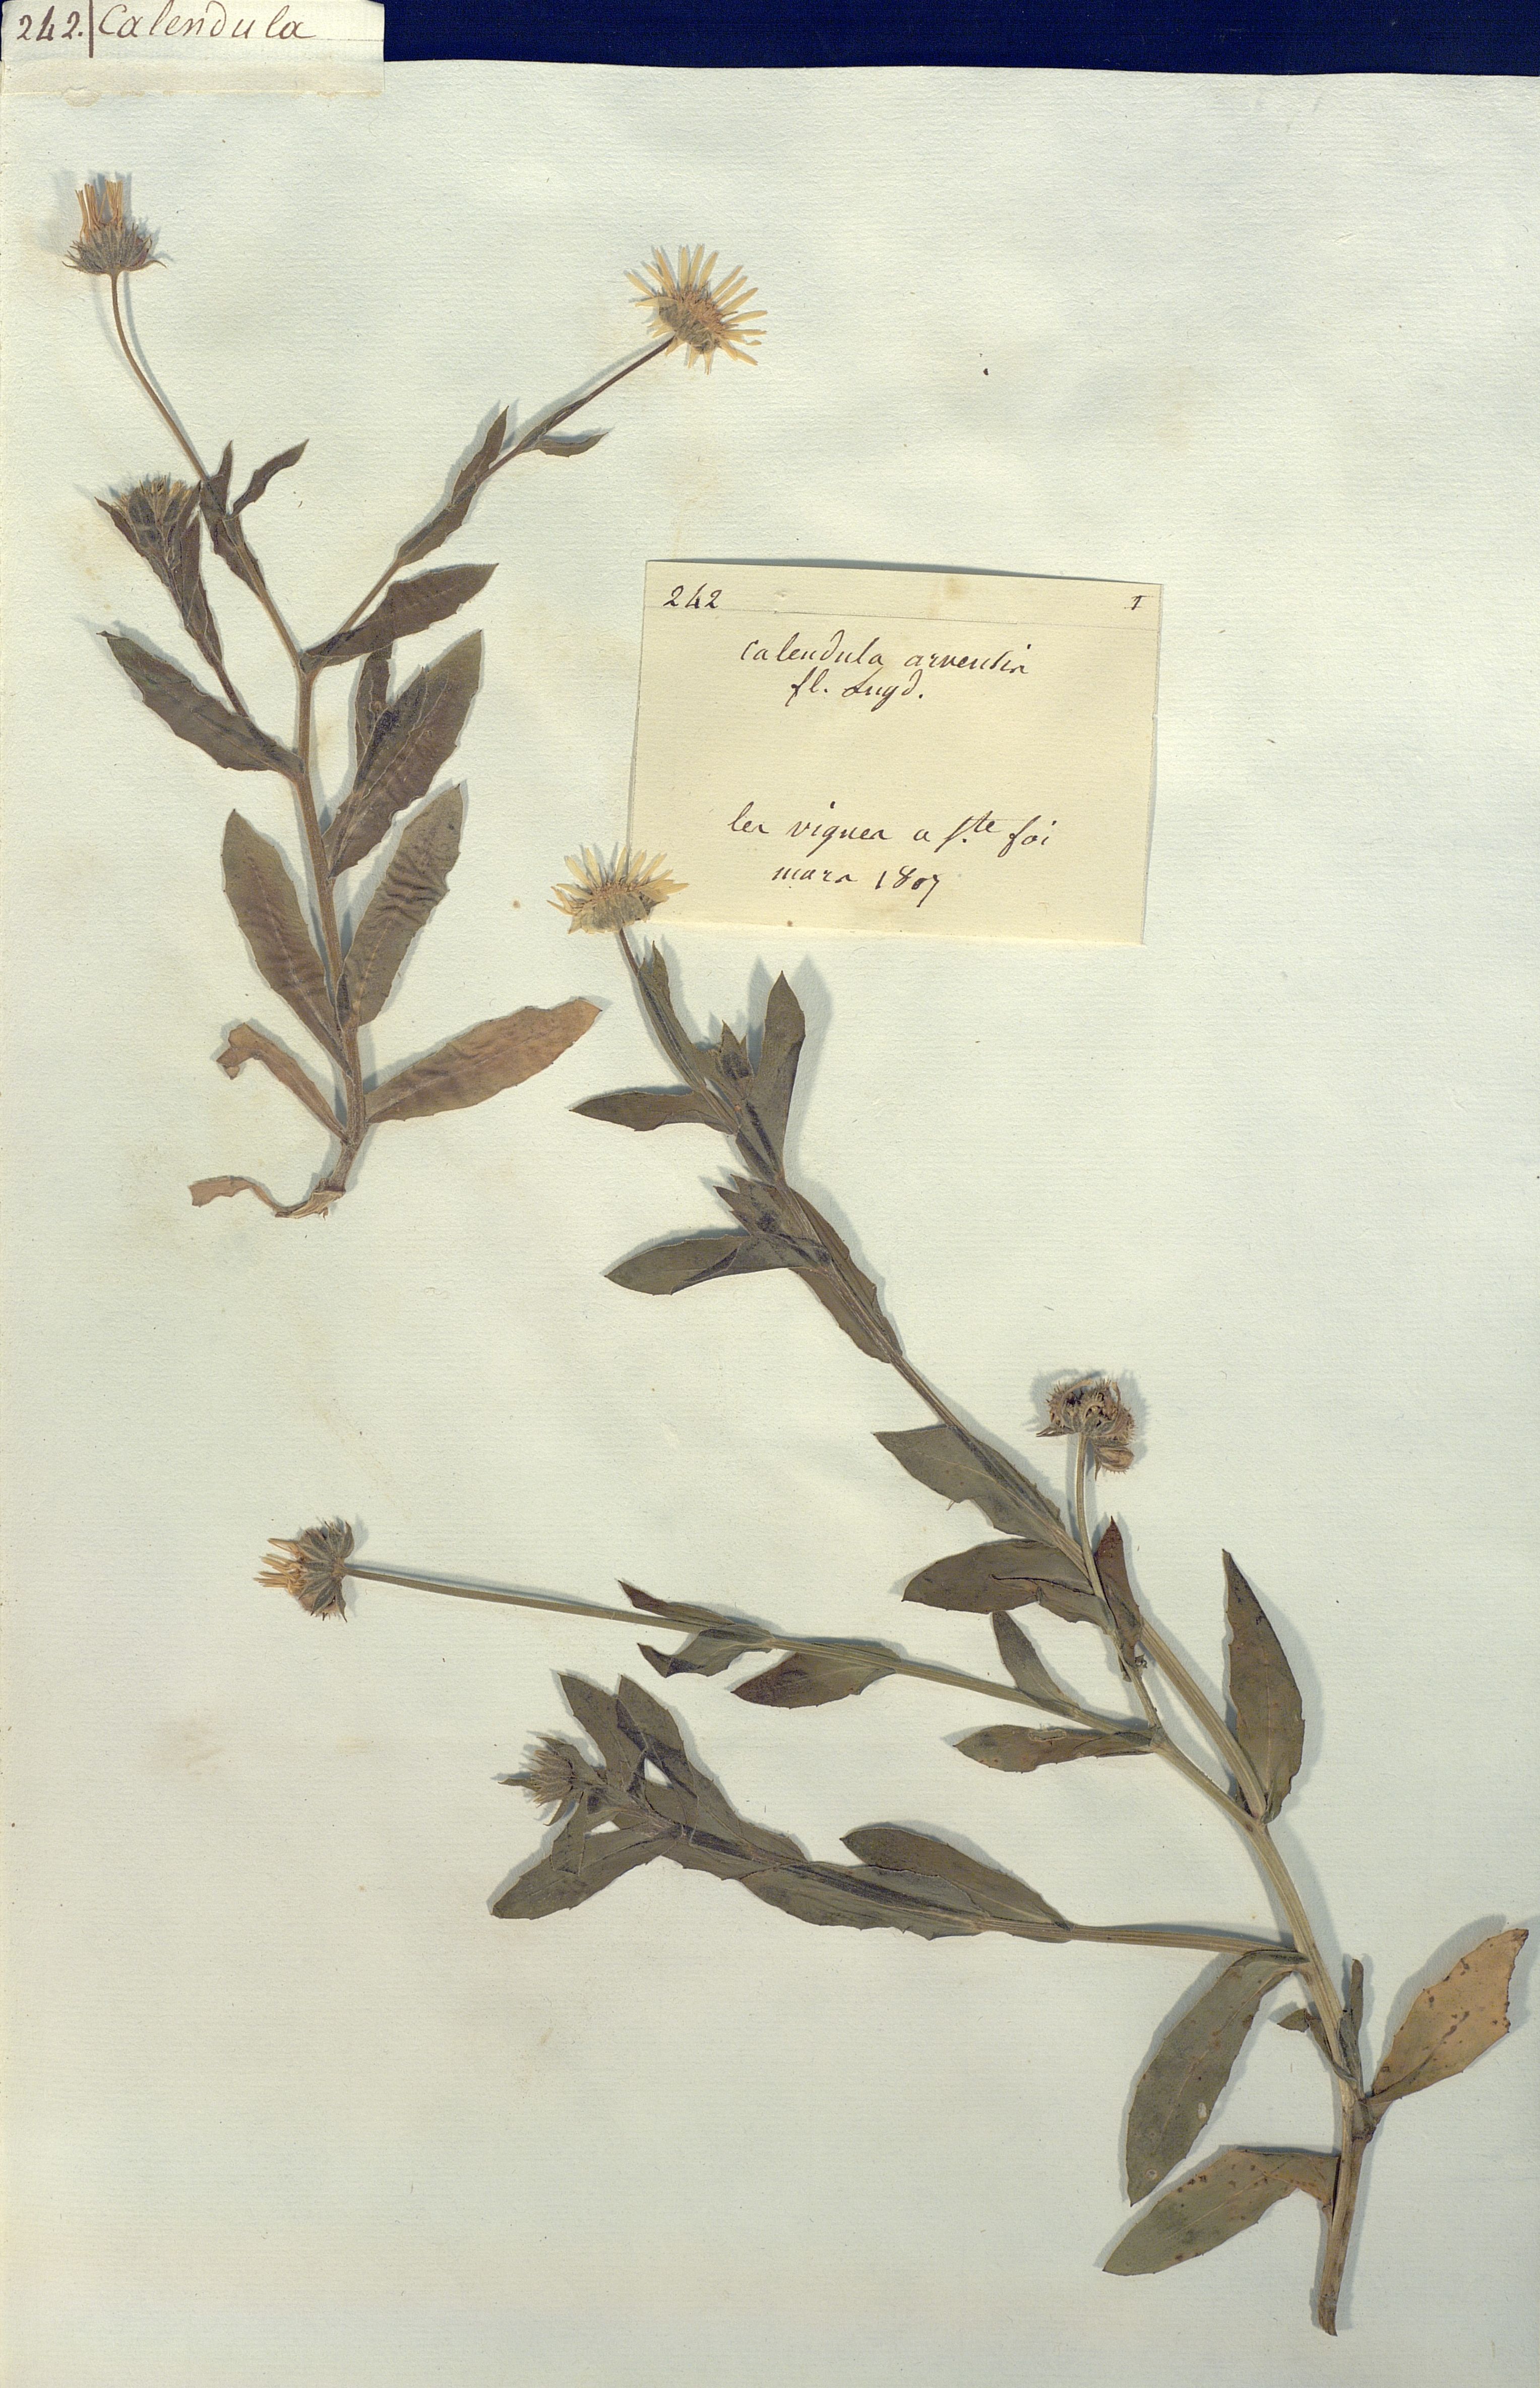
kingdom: Plantae
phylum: Tracheophyta
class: Magnoliopsida
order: Asterales
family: Asteraceae
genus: Calendula
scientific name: Calendula arvensis
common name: Field marigold
